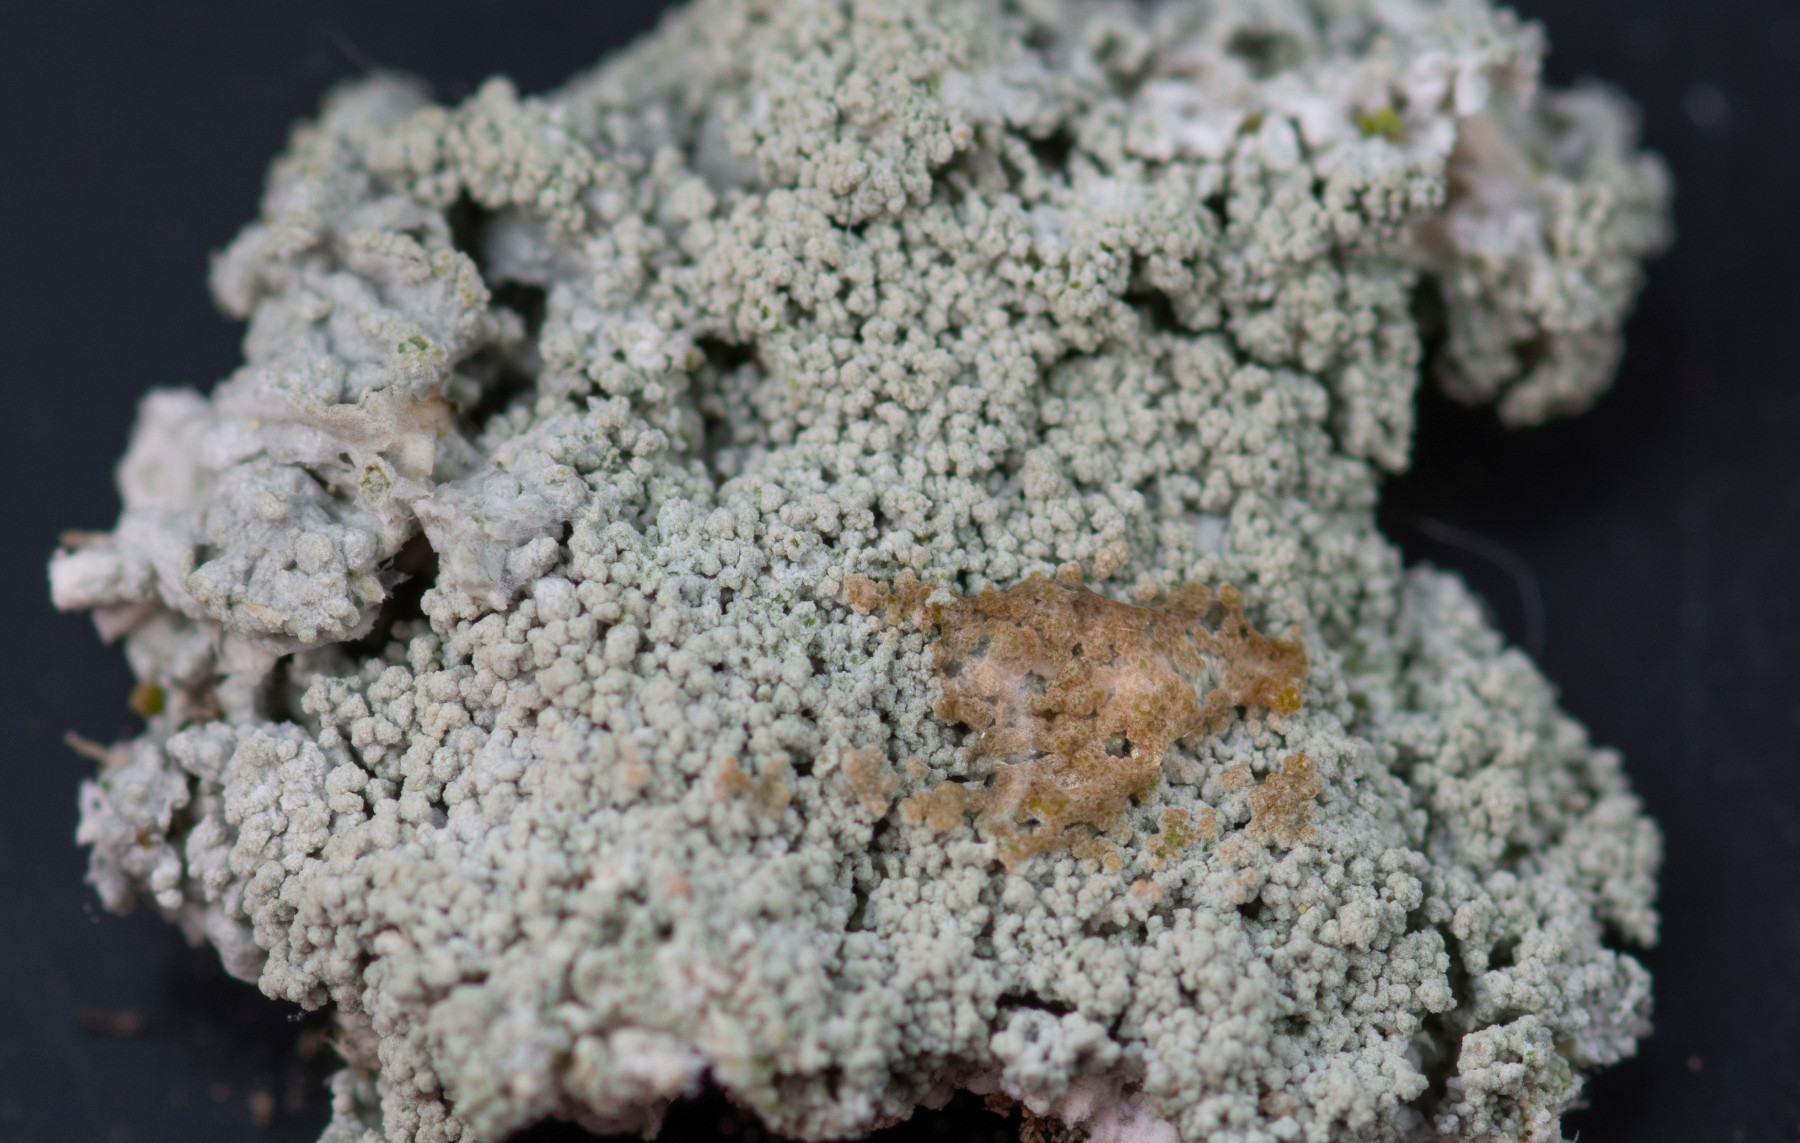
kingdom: Fungi
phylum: Ascomycota
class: Lecanoromycetes
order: Pertusariales
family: Ochrolechiaceae
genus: Ochrolechia
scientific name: Ochrolechia subviridis
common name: vorte-blegskivelav
